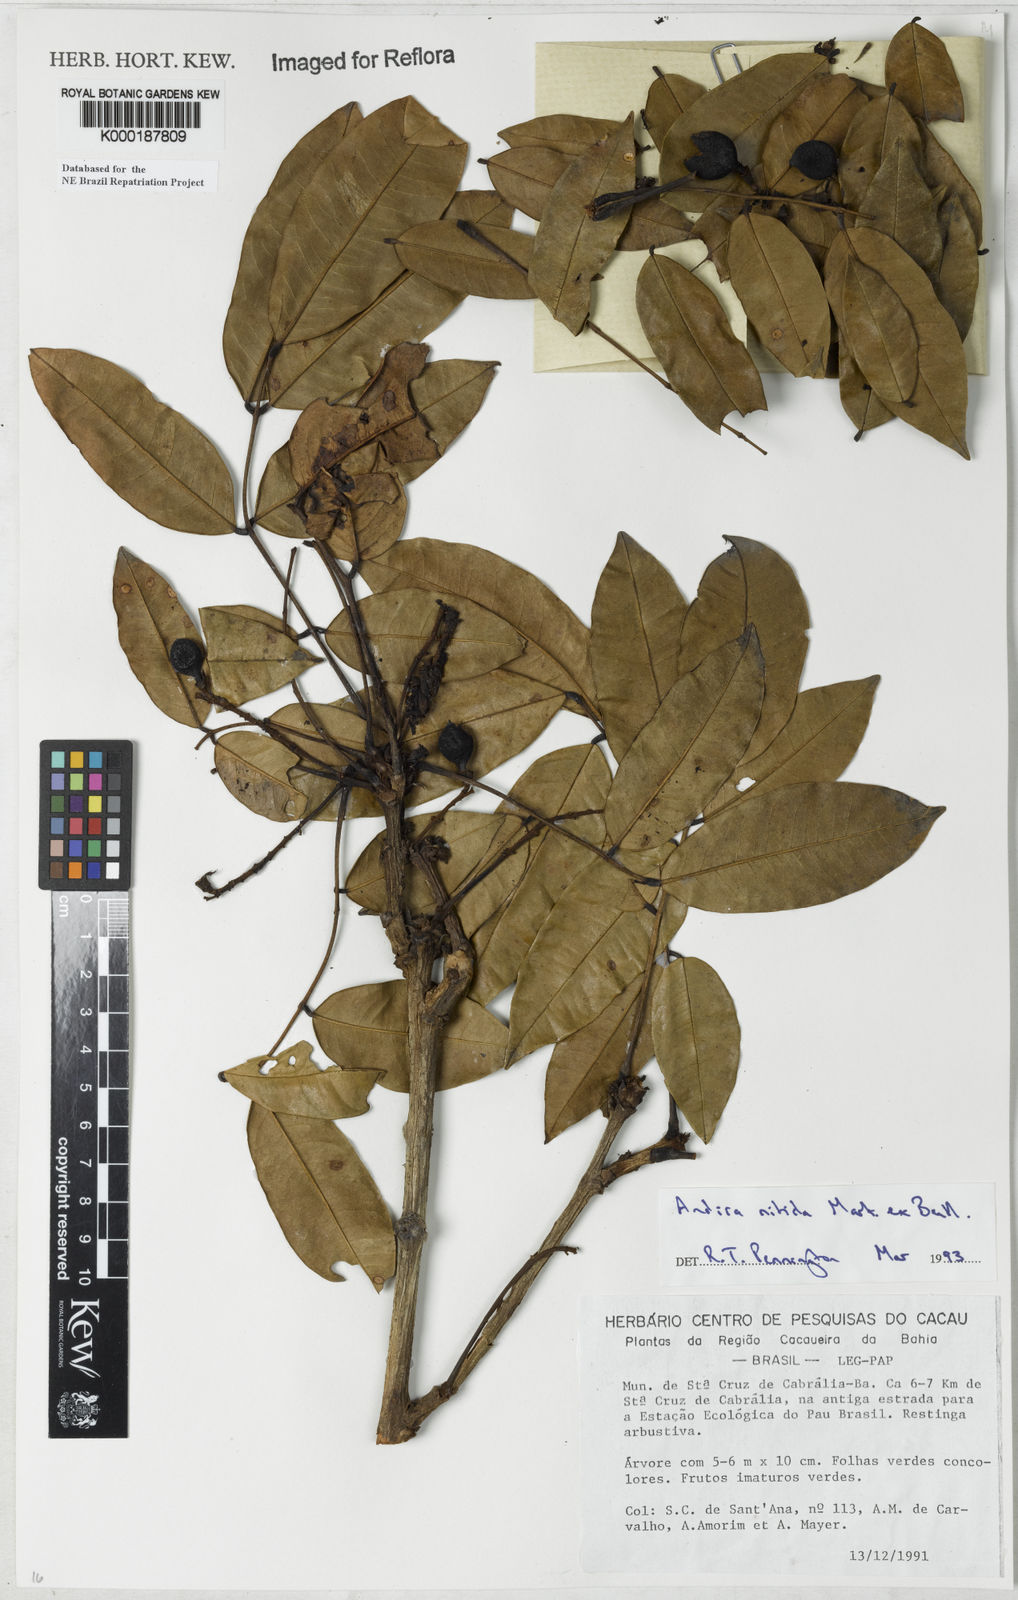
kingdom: Plantae
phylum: Tracheophyta
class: Magnoliopsida
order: Fabales
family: Fabaceae
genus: Andira
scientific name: Andira nitida
